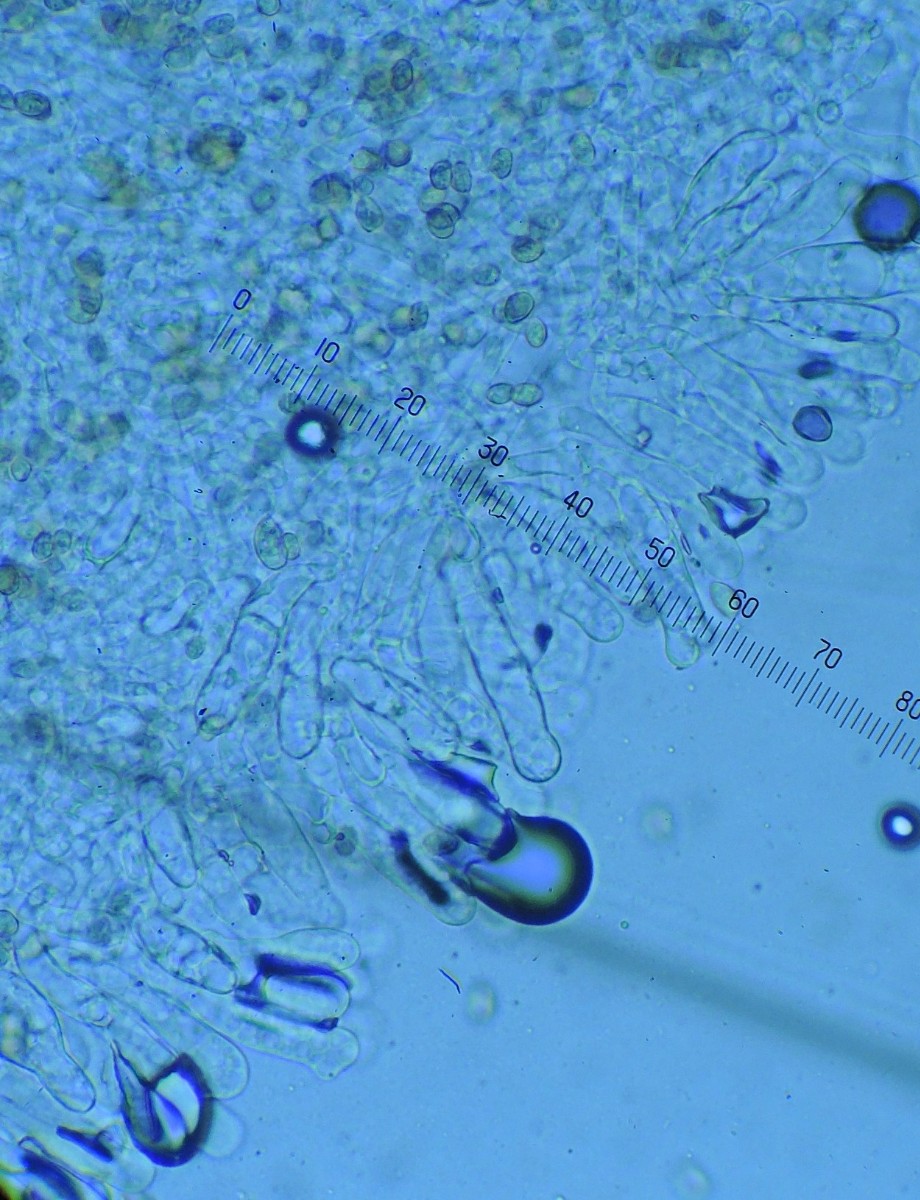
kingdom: Fungi
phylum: Basidiomycota
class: Agaricomycetes
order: Agaricales
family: Crepidotaceae
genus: Crepidotus
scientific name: Crepidotus caspari
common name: Lundells muslingesvamp
